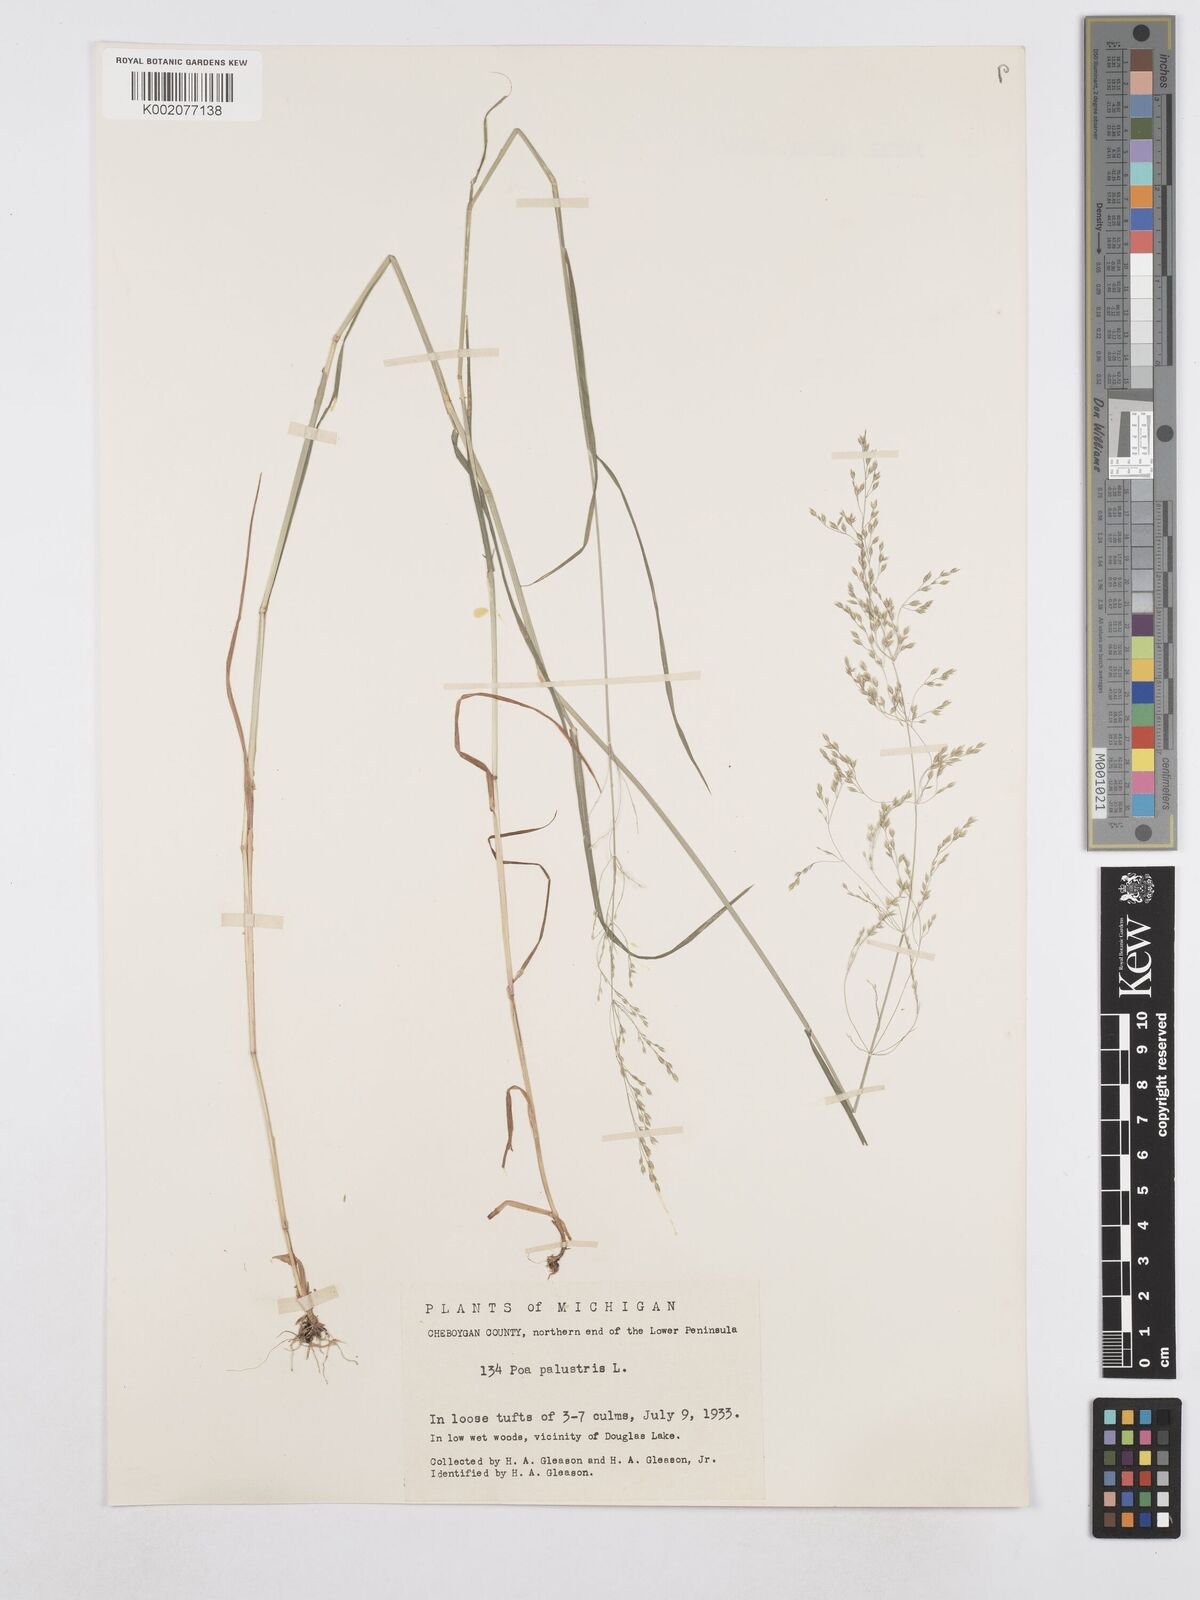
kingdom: Plantae
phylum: Tracheophyta
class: Liliopsida
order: Poales
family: Poaceae
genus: Poa
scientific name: Poa palustris
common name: Swamp meadow-grass
